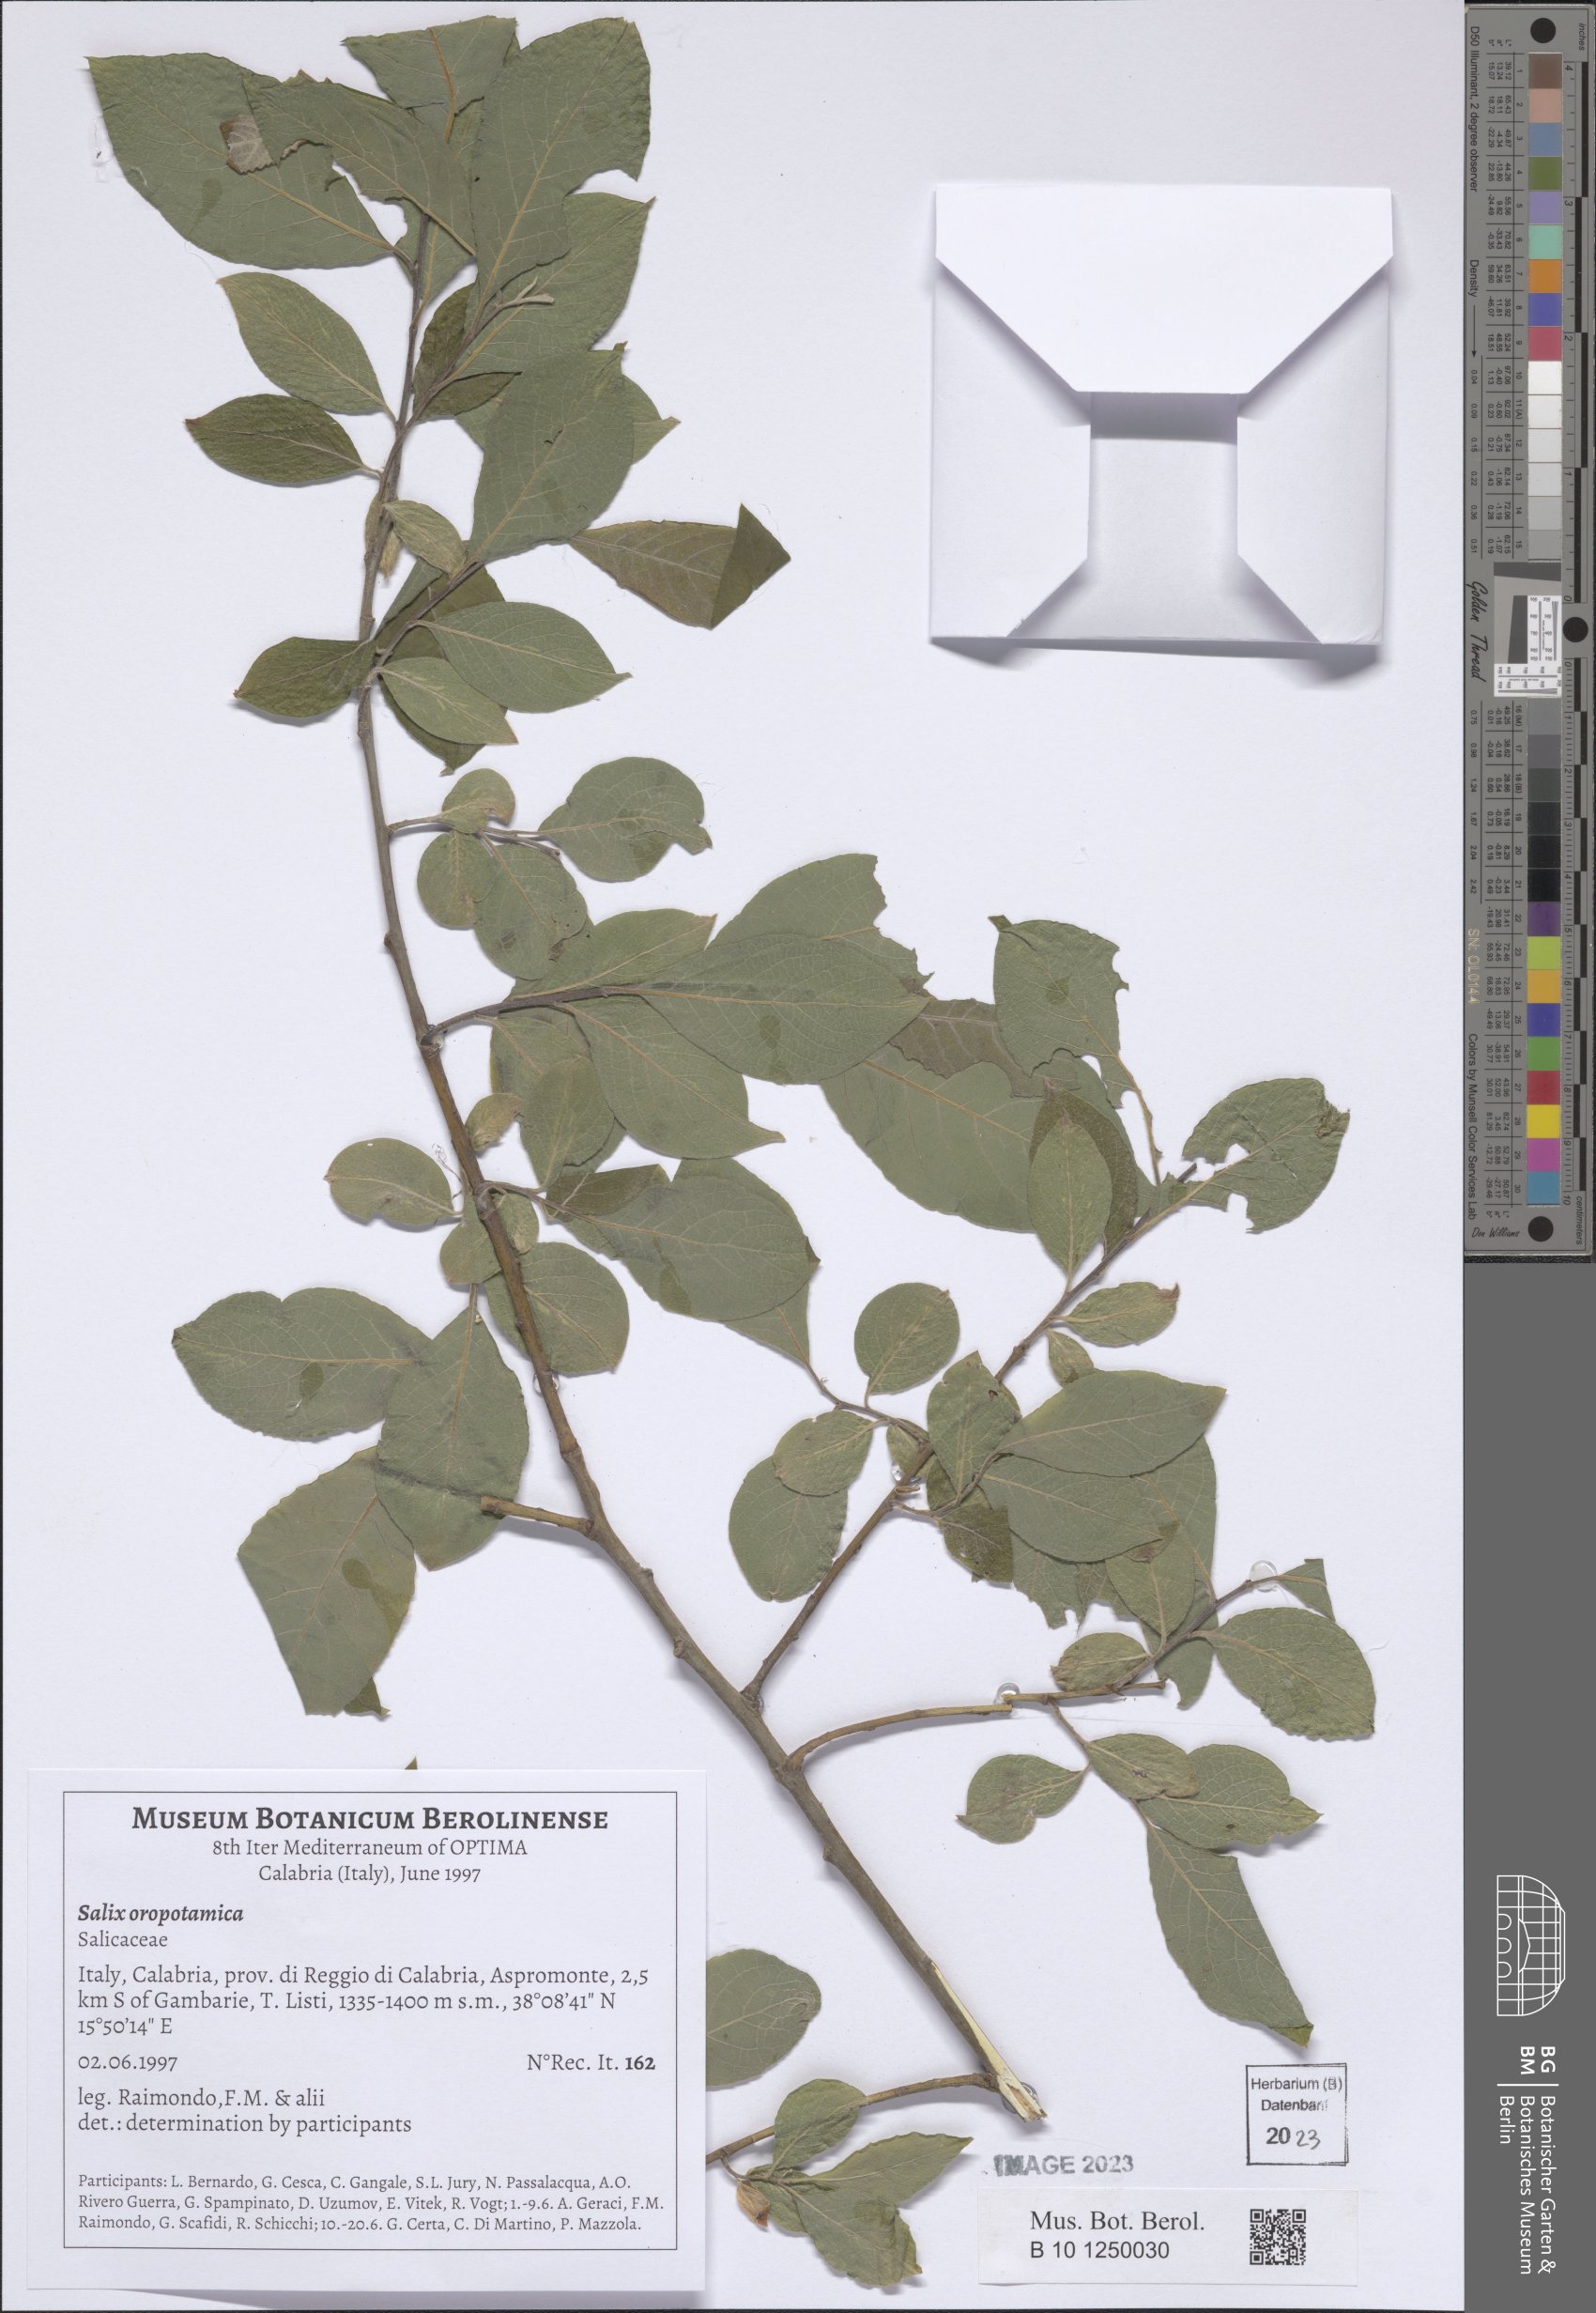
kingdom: Plantae
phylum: Tracheophyta
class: Magnoliopsida
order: Malpighiales
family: Salicaceae
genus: Salix
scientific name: Salix oropotamica
